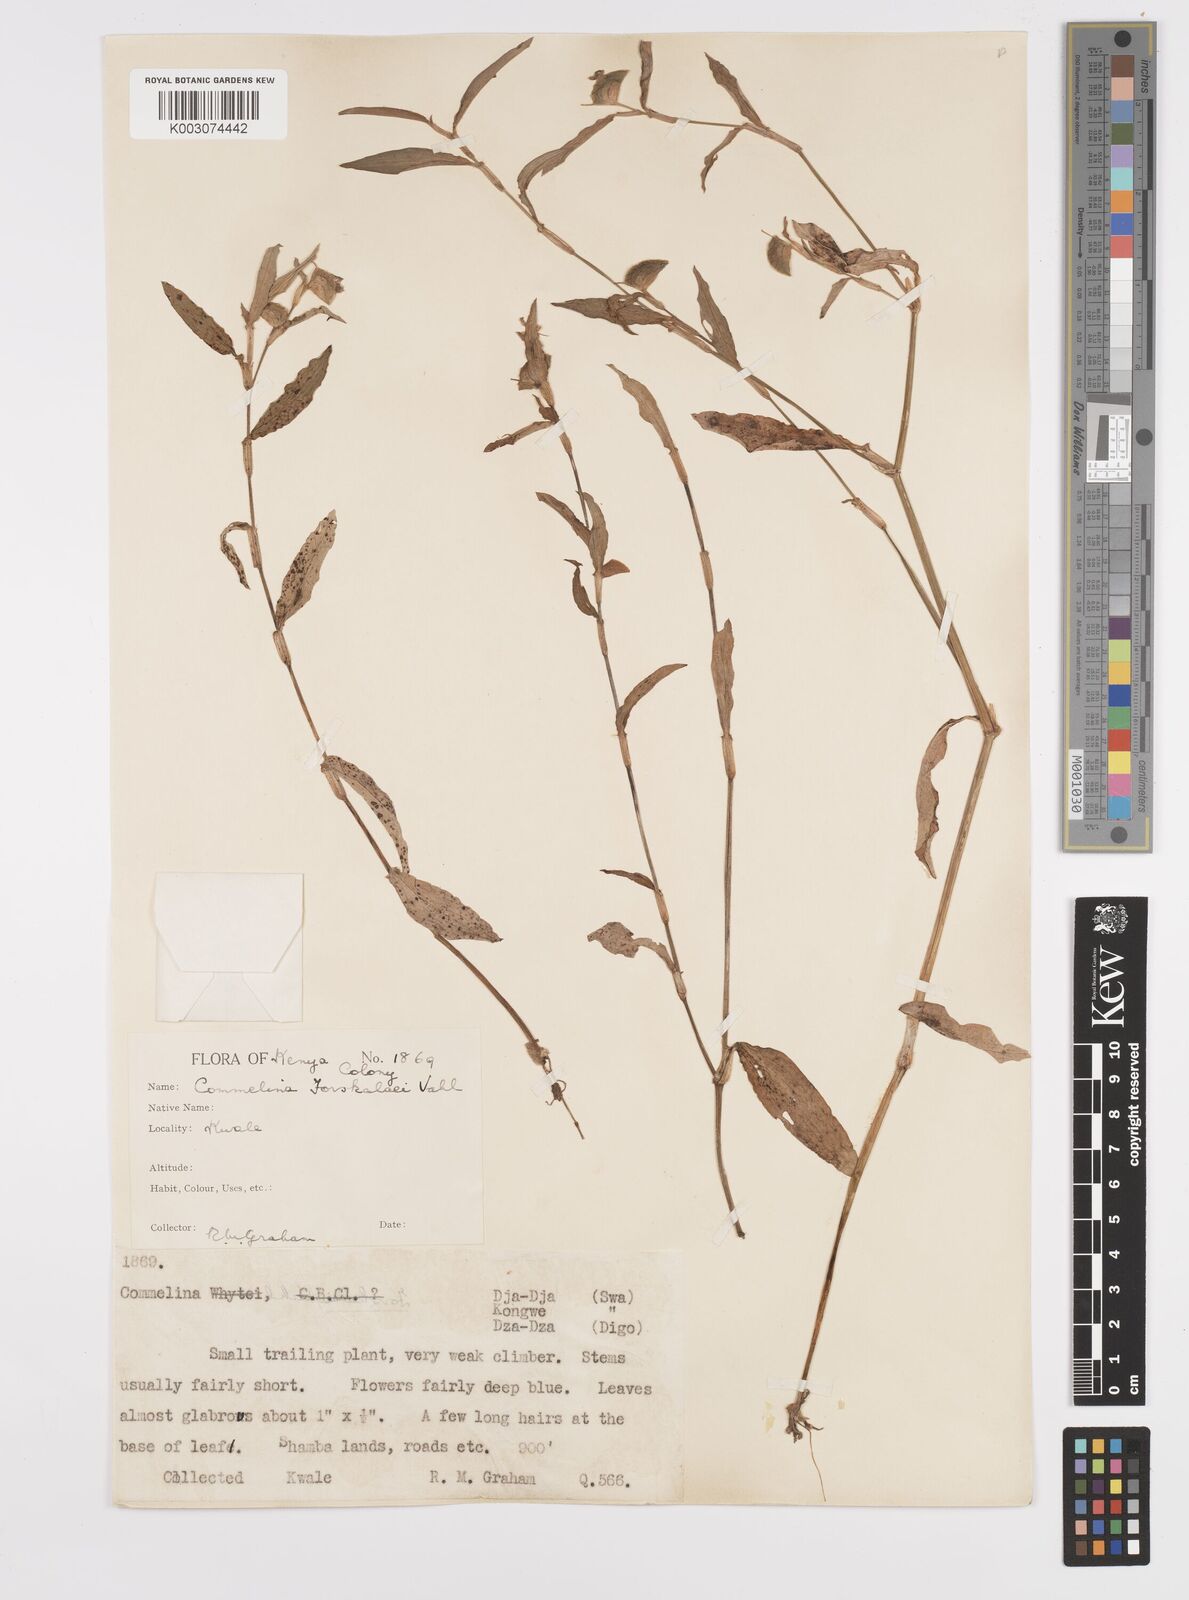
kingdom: Plantae
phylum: Tracheophyta
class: Liliopsida
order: Commelinales
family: Commelinaceae
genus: Commelina
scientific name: Commelina
